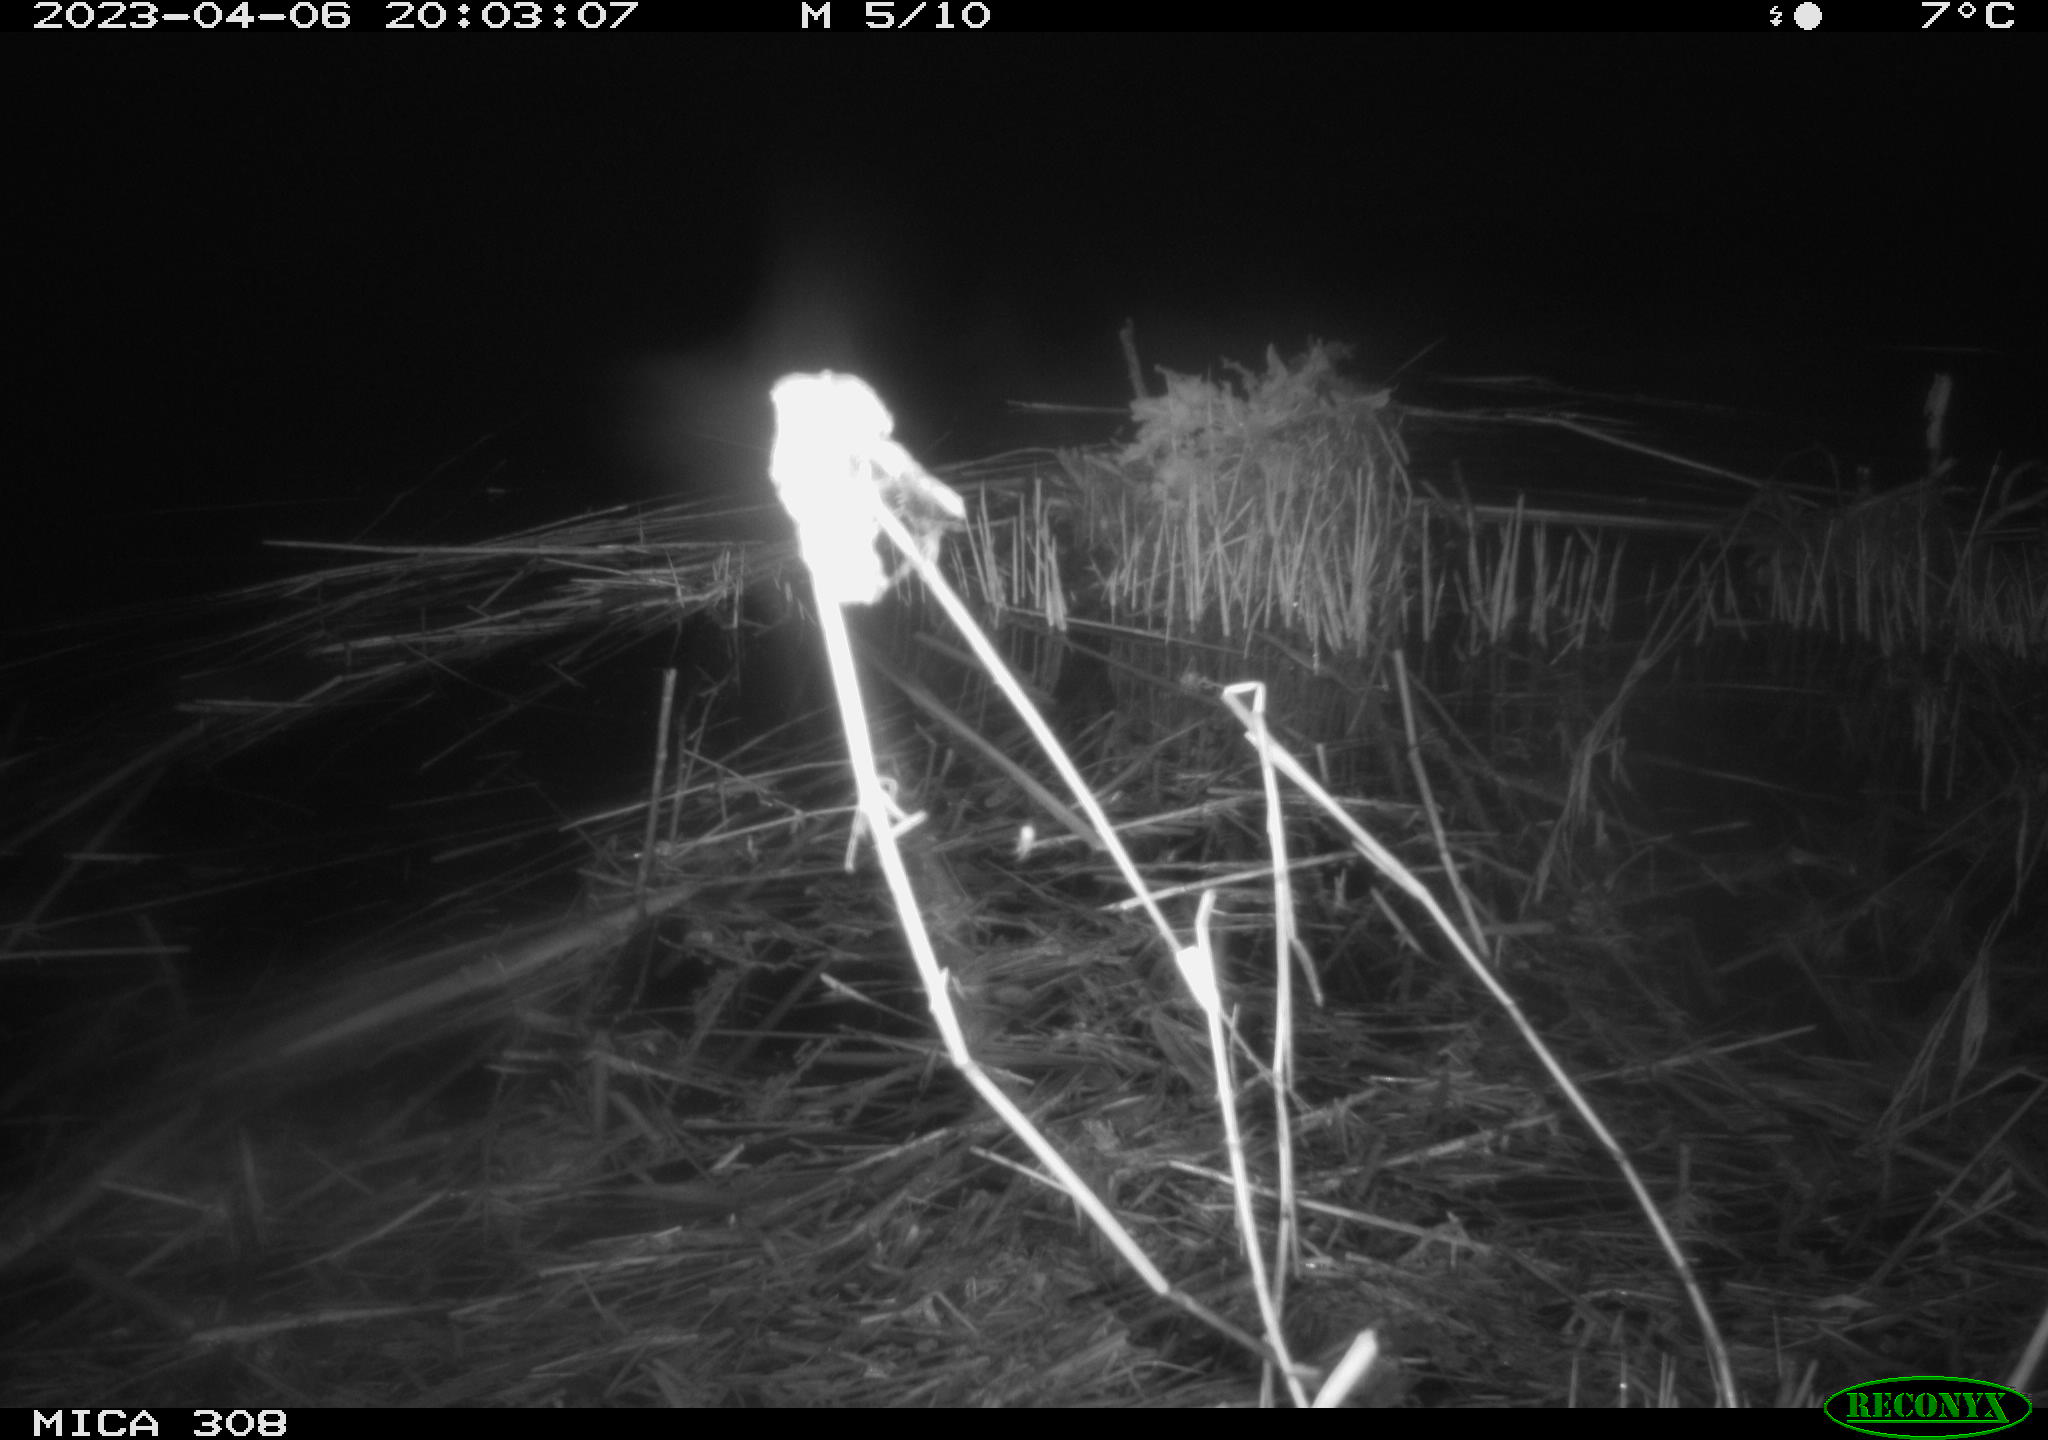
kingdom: Animalia
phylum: Chordata
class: Mammalia
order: Rodentia
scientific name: Rodentia
